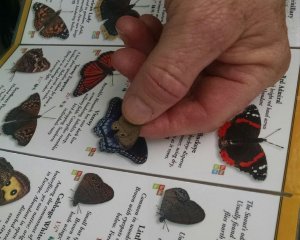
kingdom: Animalia
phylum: Arthropoda
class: Insecta
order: Lepidoptera
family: Nymphalidae
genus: Hermeuptychia
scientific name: Hermeuptychia hermes
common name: Carolina Satyr
